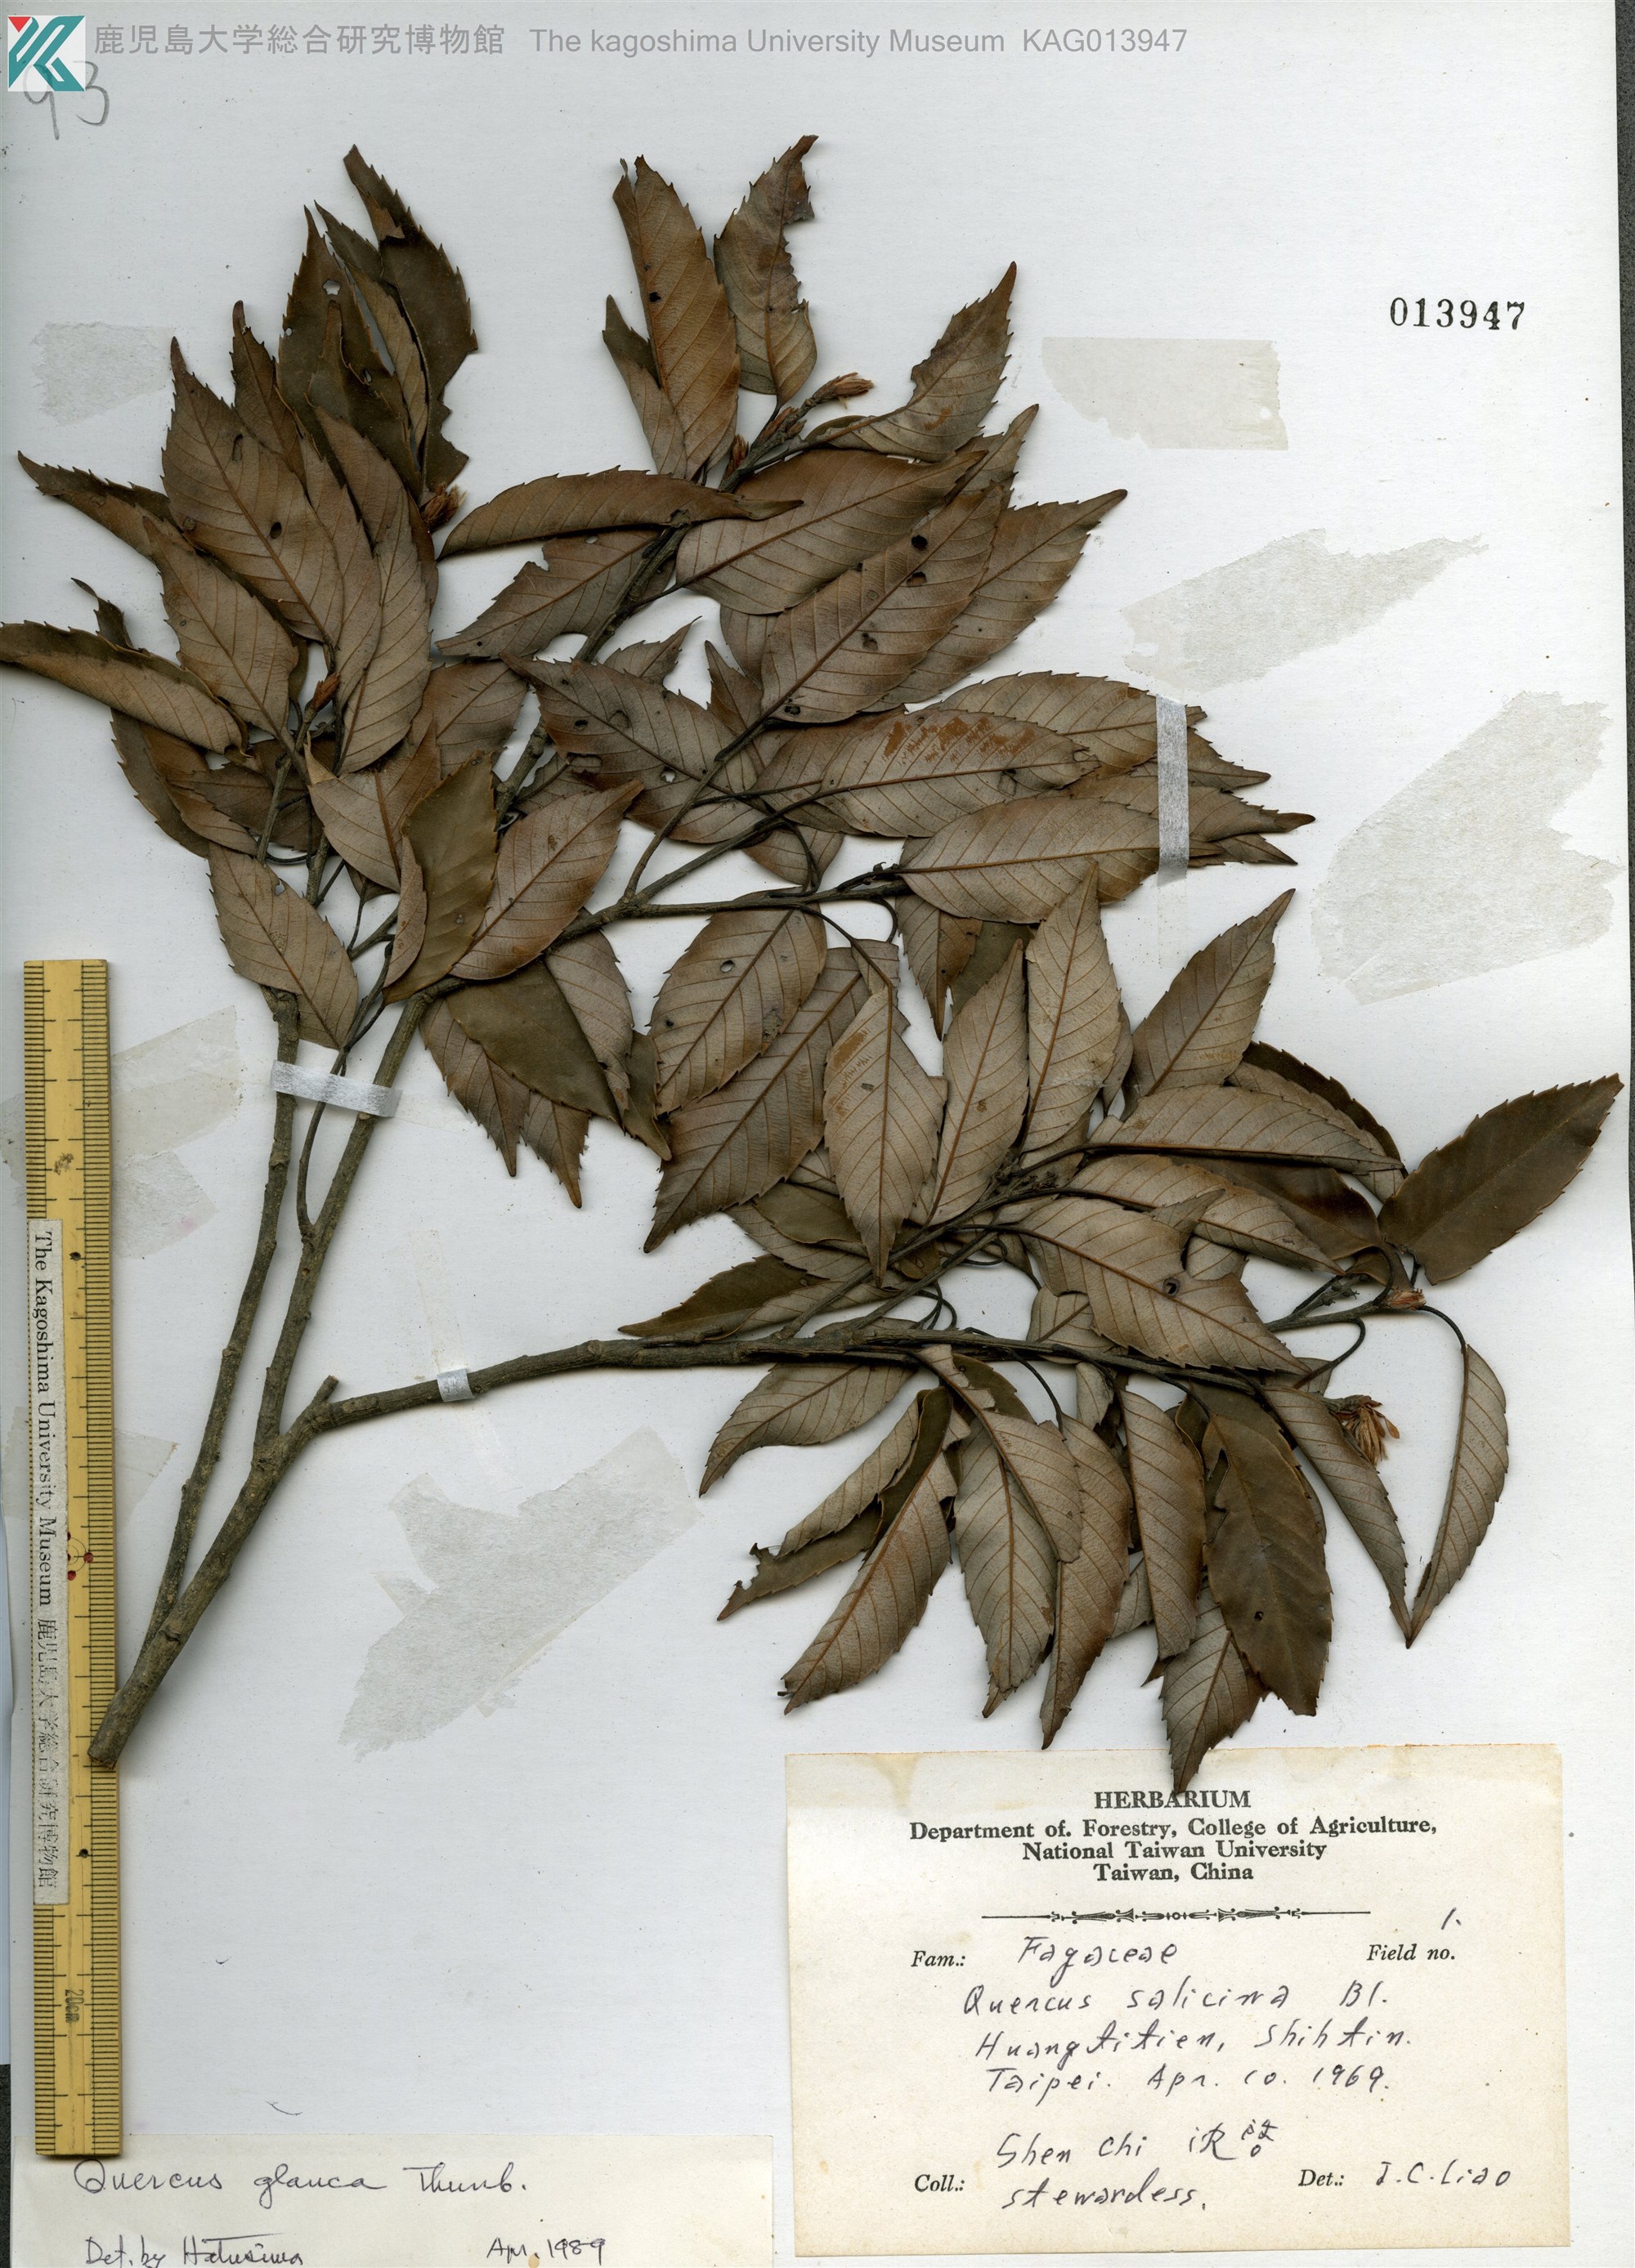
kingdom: Plantae
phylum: Tracheophyta
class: Magnoliopsida
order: Fagales
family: Fagaceae
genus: Quercus
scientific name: Quercus glauca
